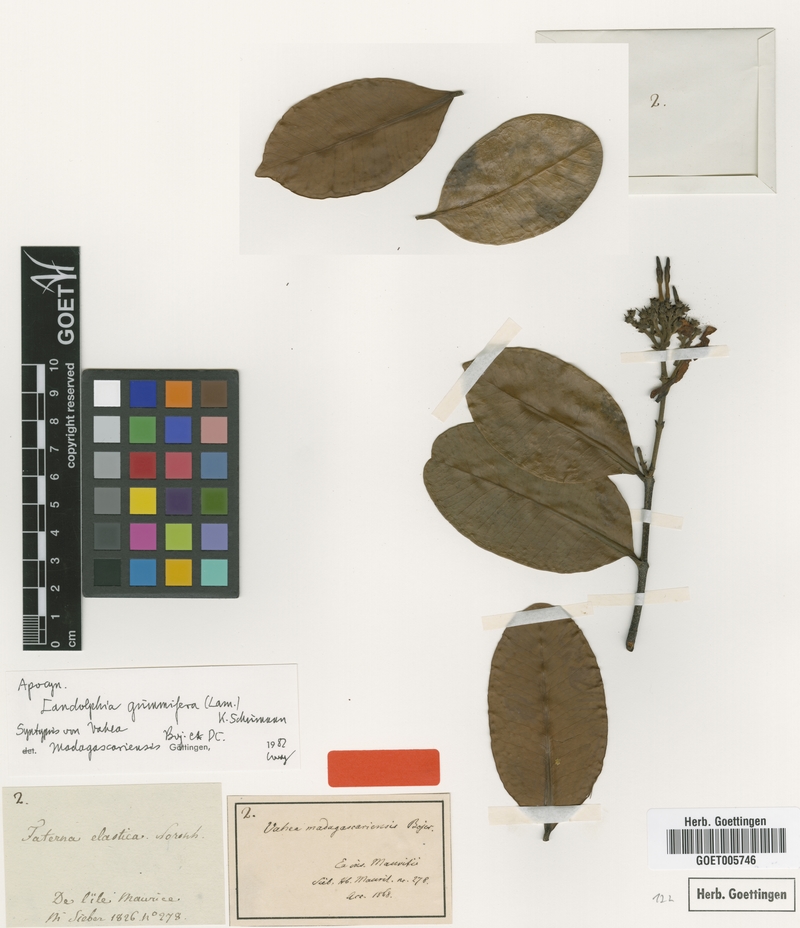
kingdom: Plantae
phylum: Tracheophyta
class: Magnoliopsida
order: Gentianales
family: Apocynaceae
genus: Landolphia
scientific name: Landolphia gummifera
